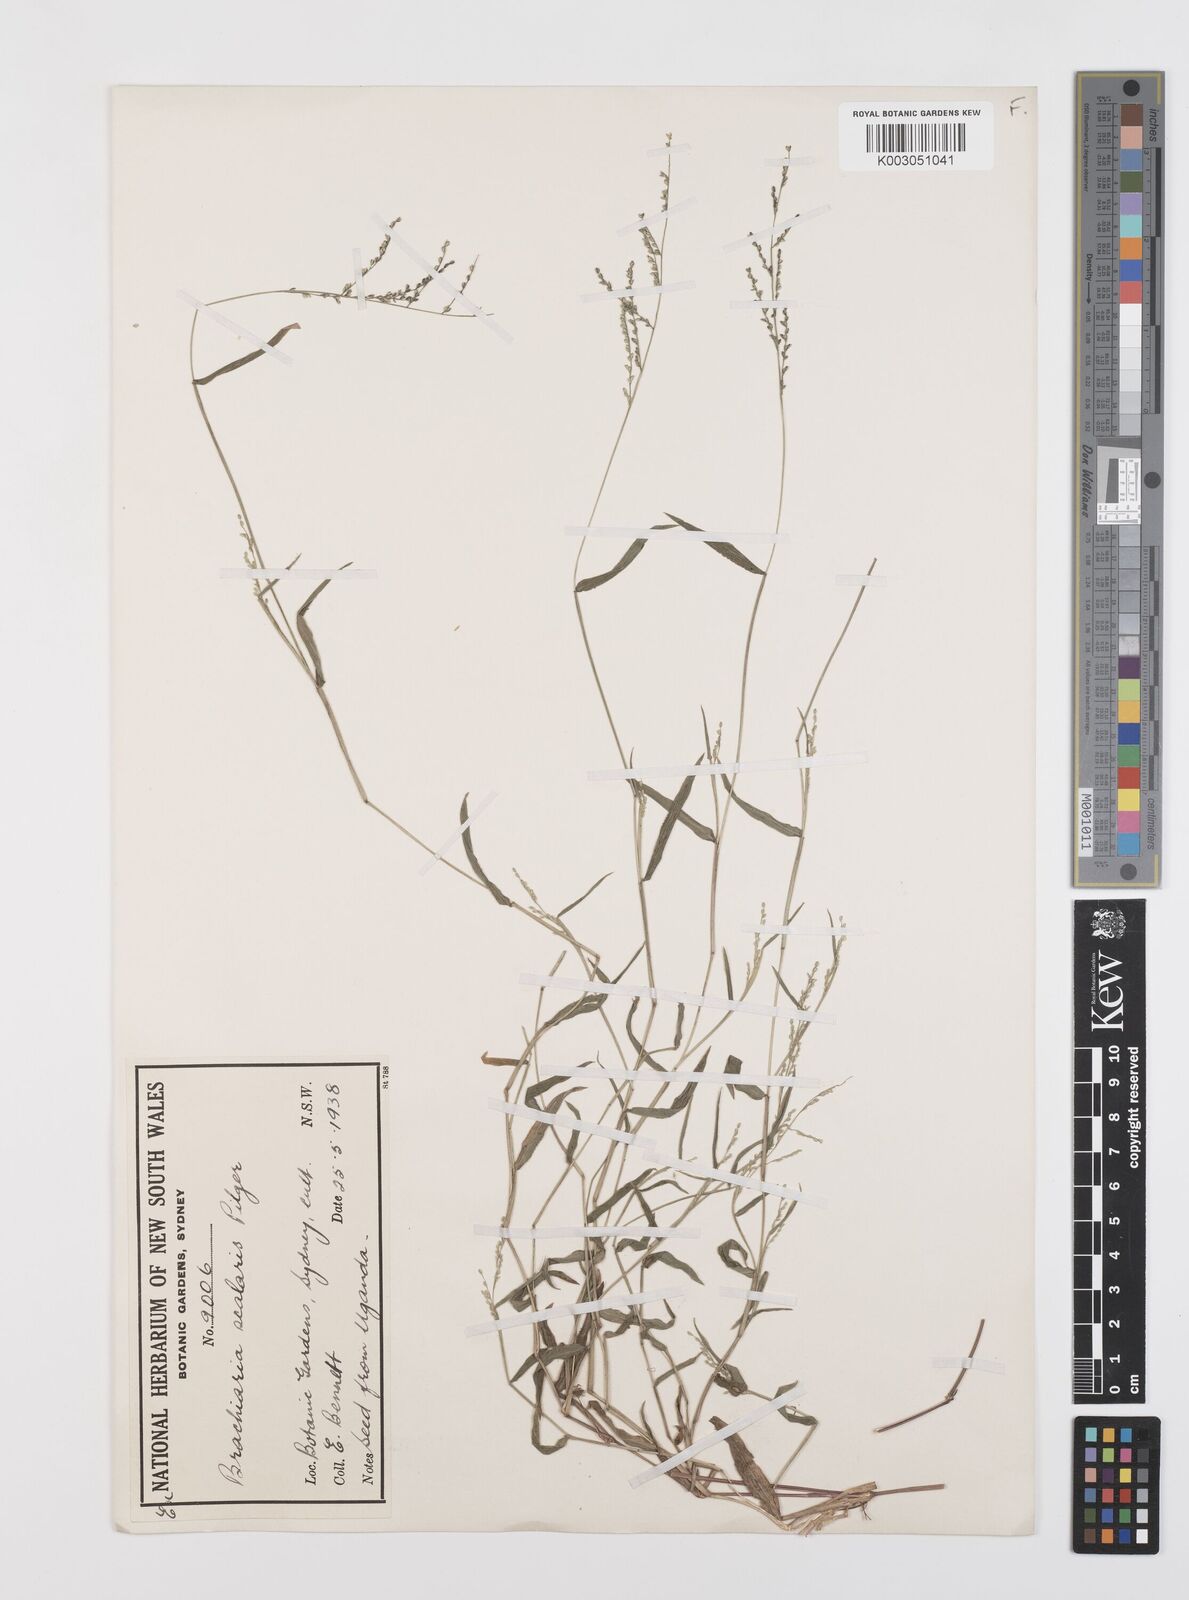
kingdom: Plantae
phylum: Tracheophyta
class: Liliopsida
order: Poales
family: Poaceae
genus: Urochloa
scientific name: Urochloa comata
